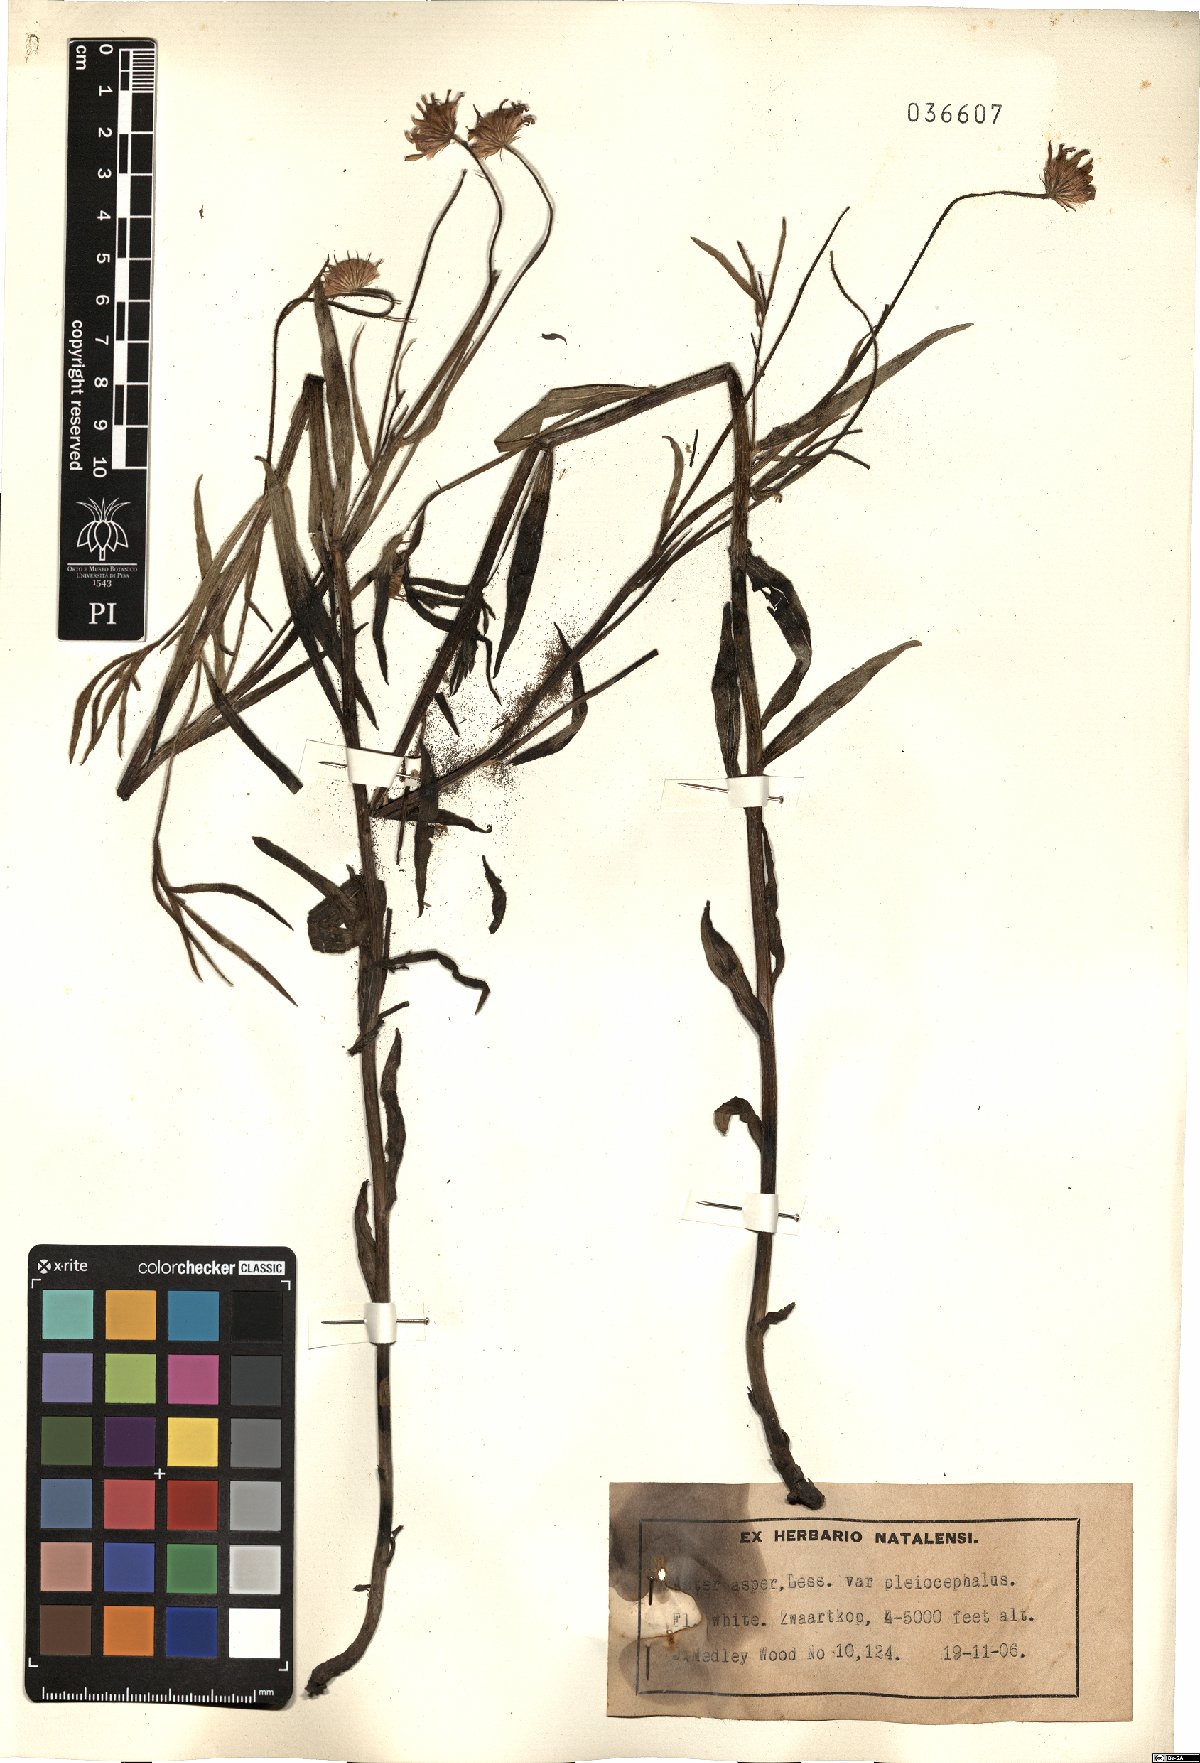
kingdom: Plantae
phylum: Tracheophyta
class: Magnoliopsida
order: Asterales
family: Asteraceae
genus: Afroaster
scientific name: Afroaster hispidus
